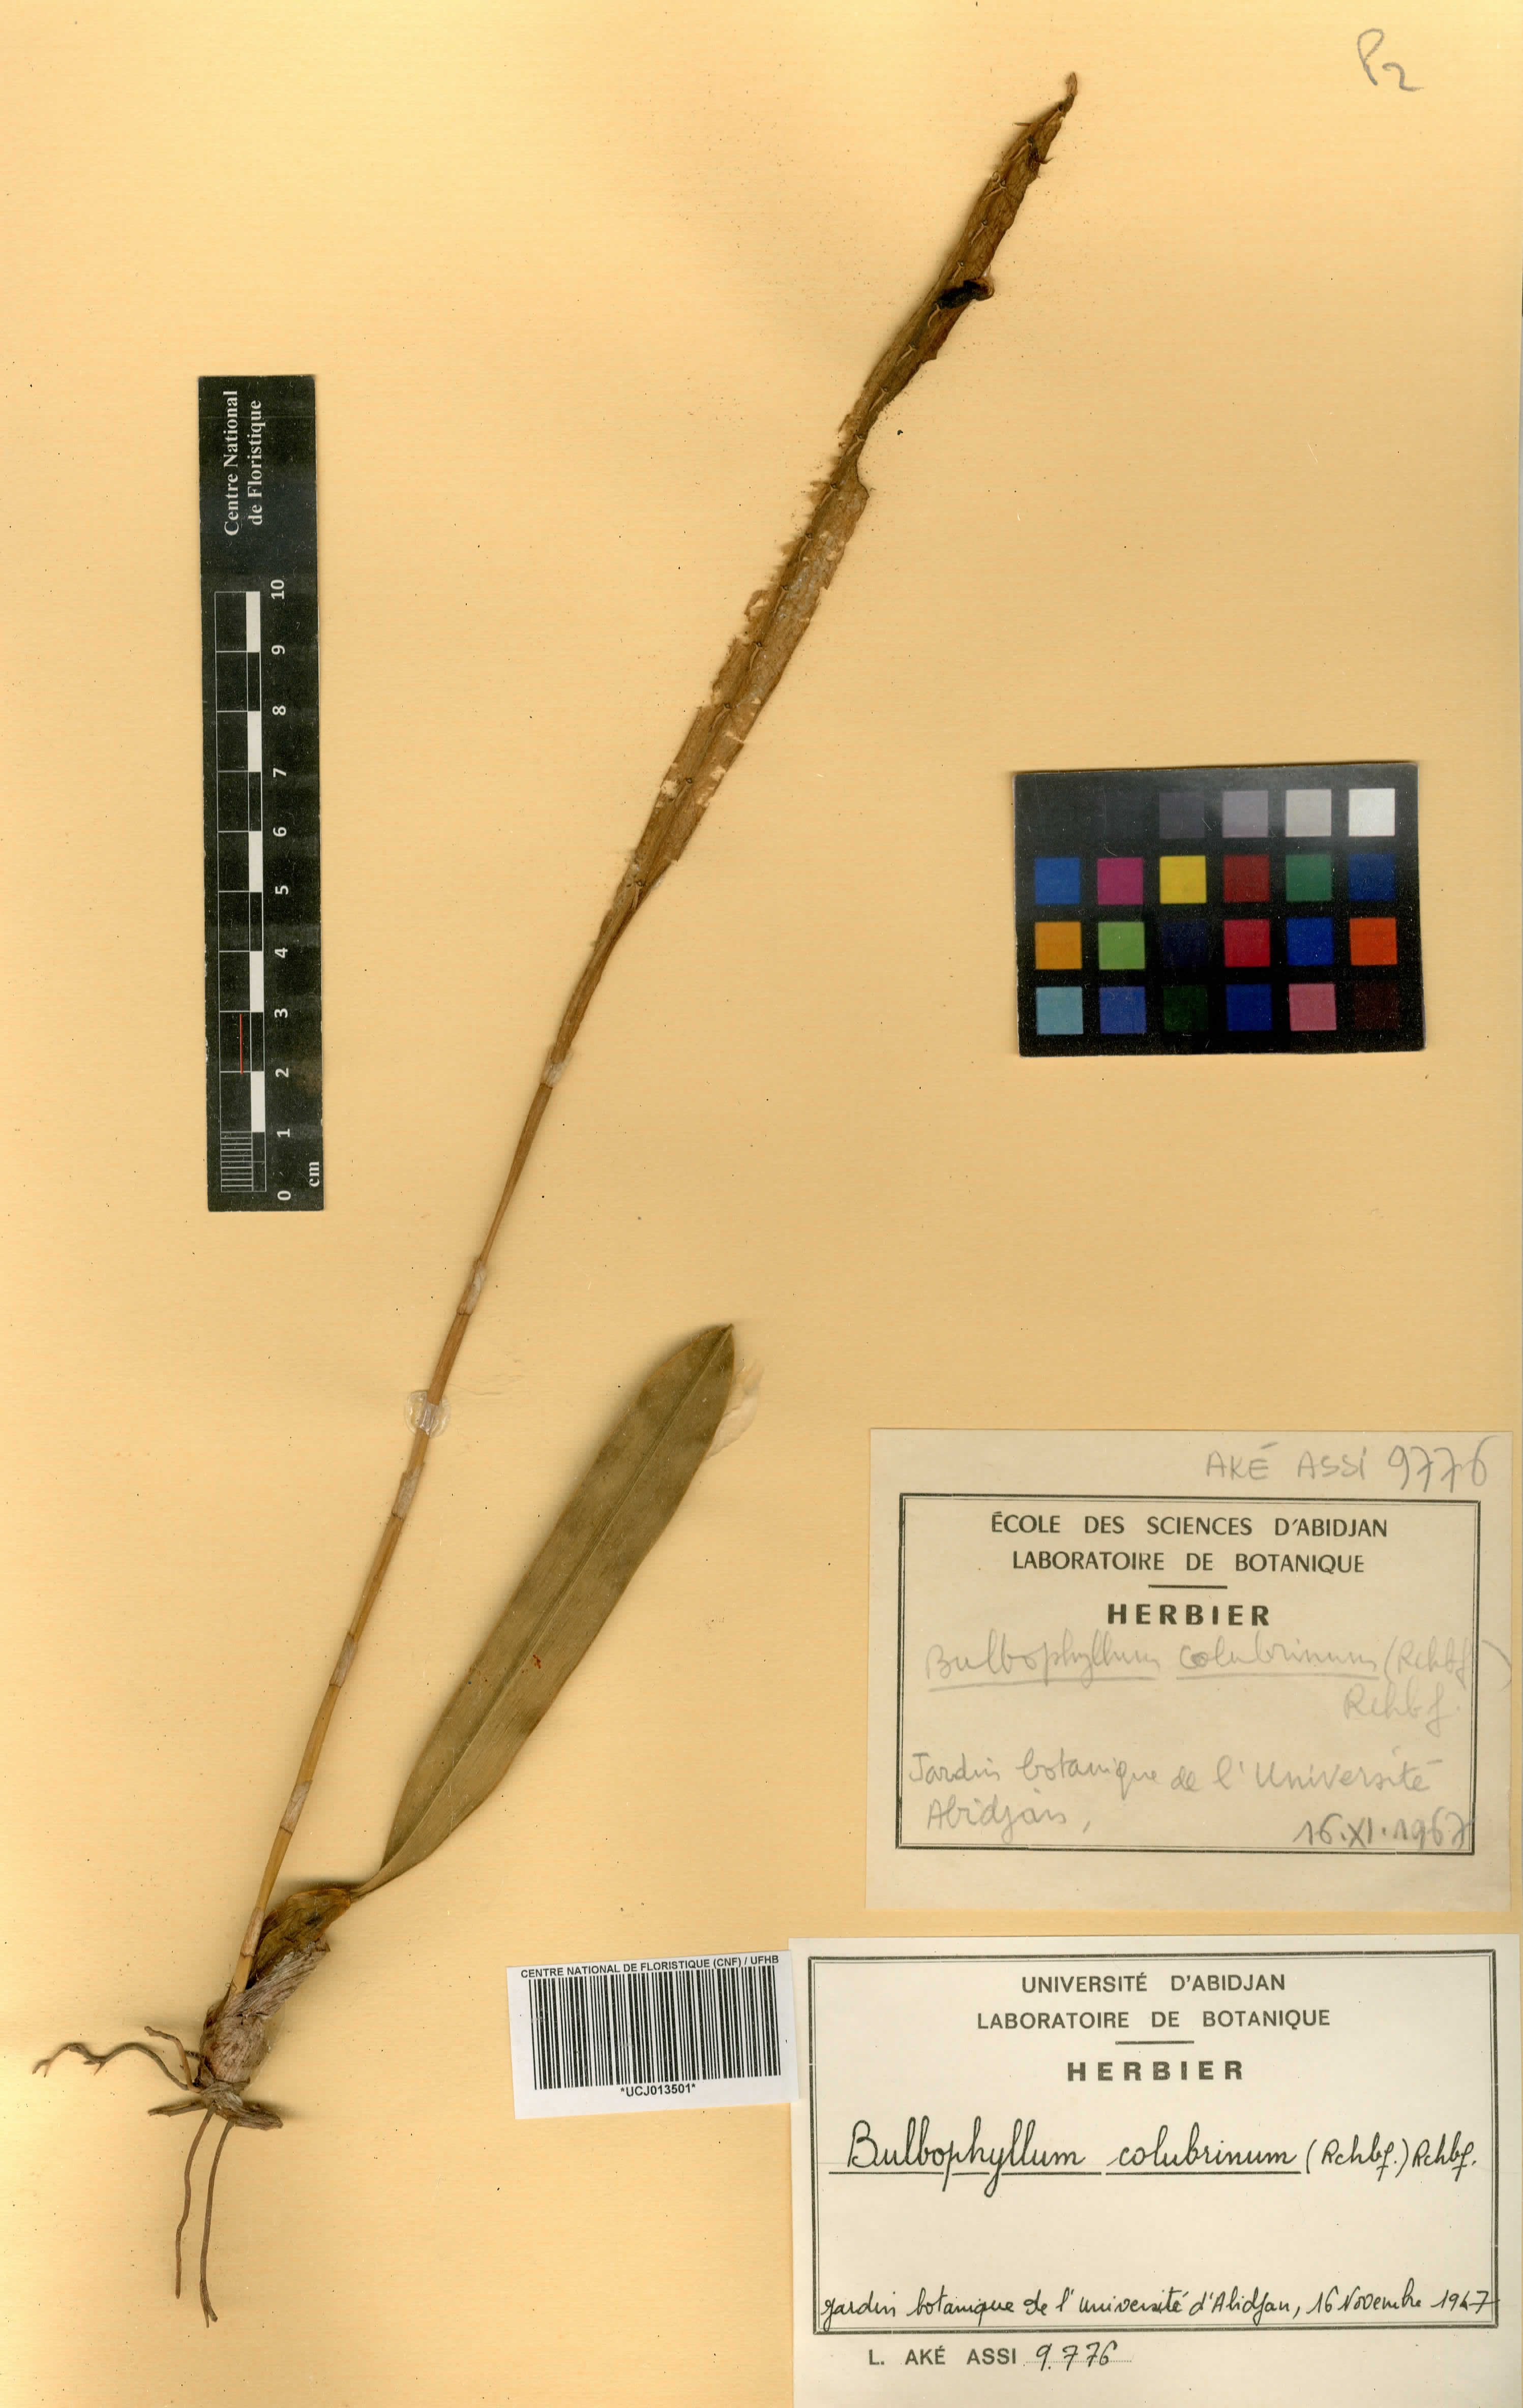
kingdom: Plantae
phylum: Tracheophyta
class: Liliopsida
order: Asparagales
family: Orchidaceae
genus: Bulbophyllum
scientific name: Bulbophyllum colubrinum
